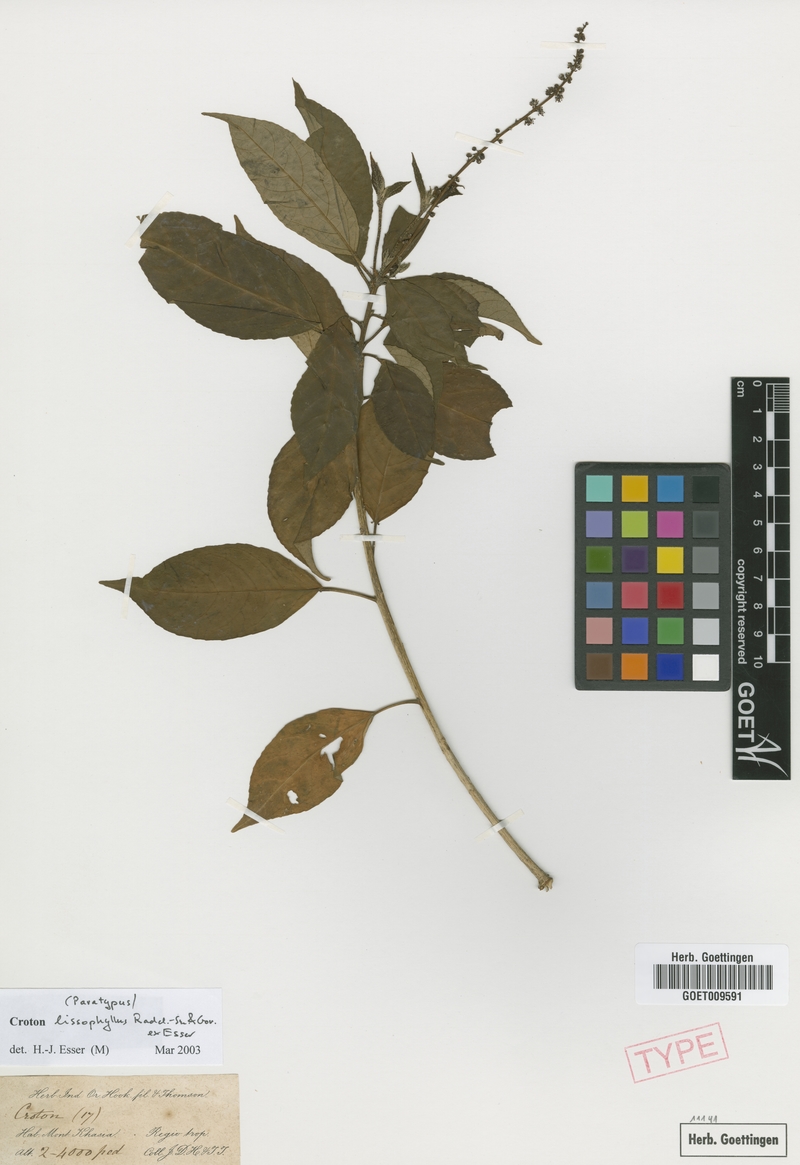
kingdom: Plantae
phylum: Tracheophyta
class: Magnoliopsida
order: Malpighiales
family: Euphorbiaceae
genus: Croton
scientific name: Croton lissophyllus
